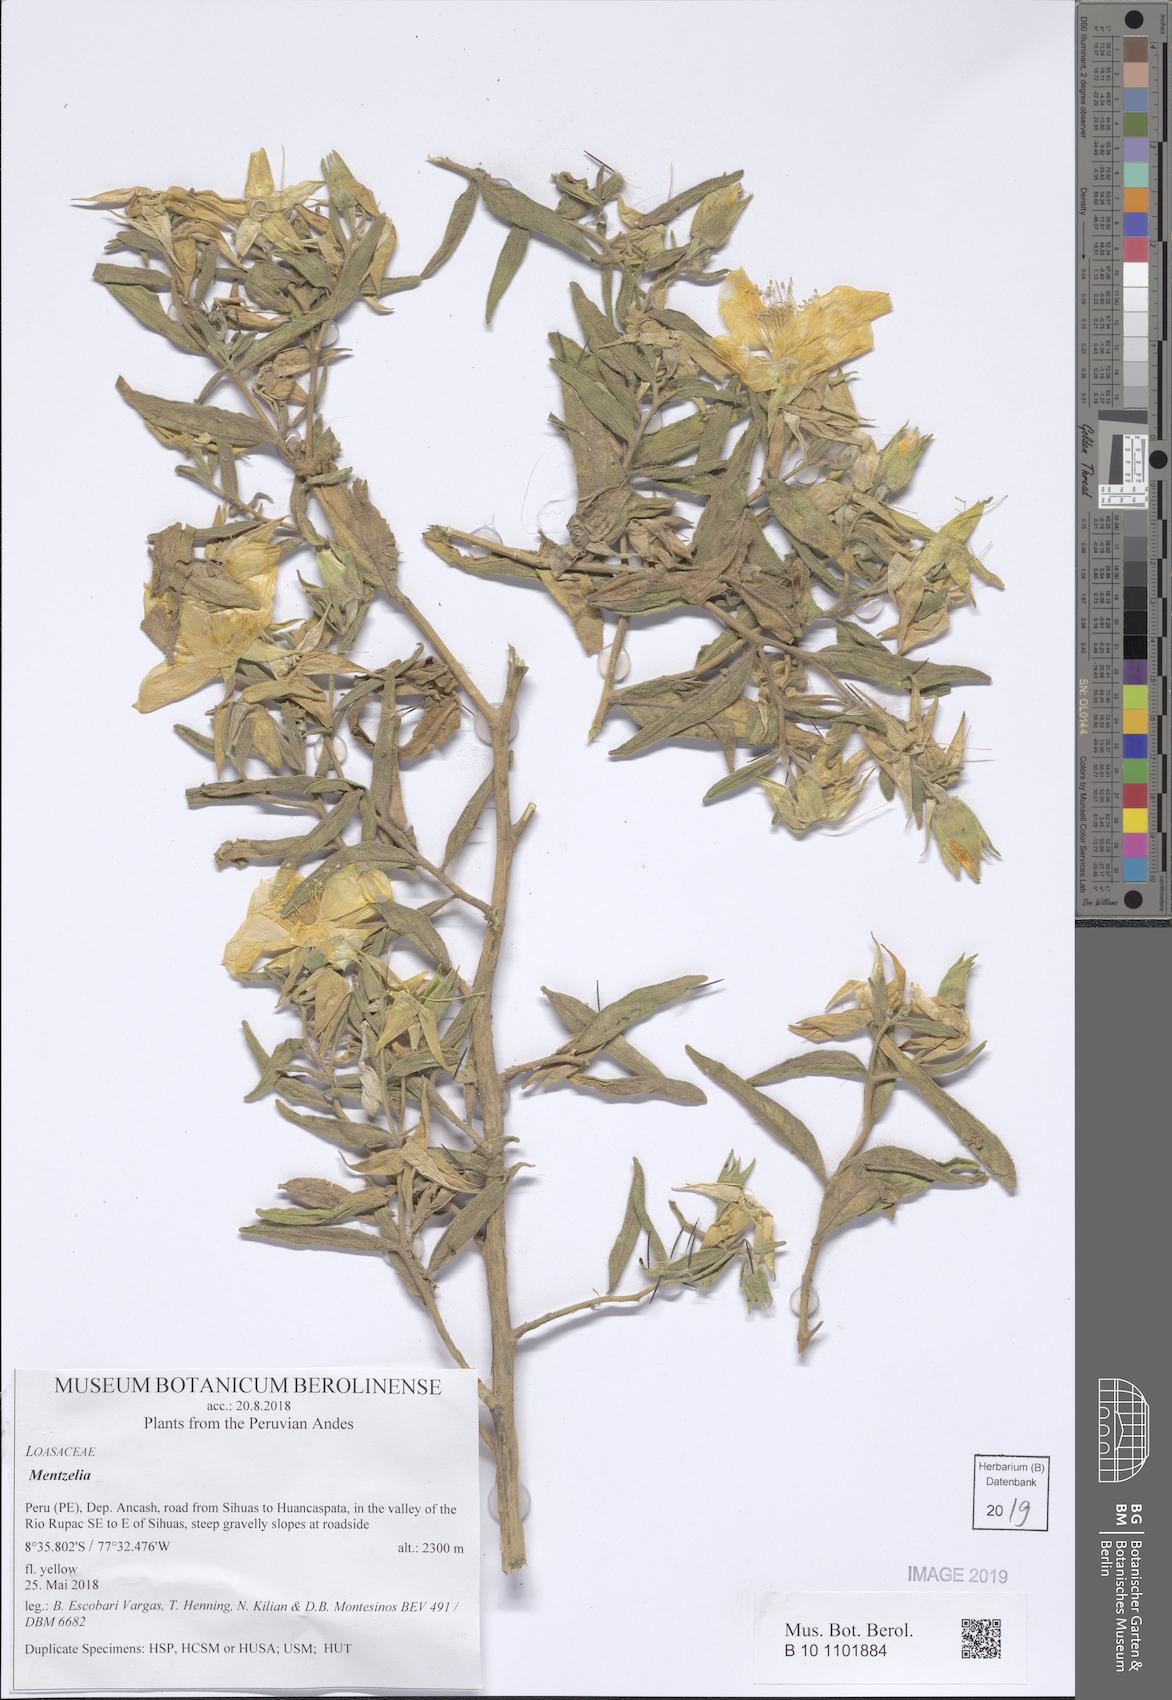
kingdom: Plantae
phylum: Tracheophyta
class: Magnoliopsida
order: Cornales
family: Loasaceae
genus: Mentzelia
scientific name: Mentzelia heterosepala
